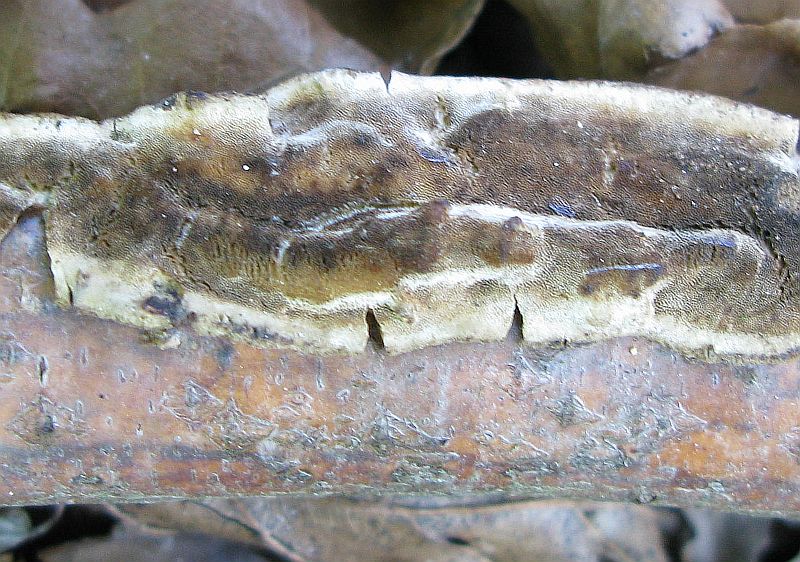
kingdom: Fungi
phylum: Basidiomycota
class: Agaricomycetes
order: Polyporales
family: Incrustoporiaceae
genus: Skeletocutis
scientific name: Skeletocutis nemoralis
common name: stor krystalporesvamp
